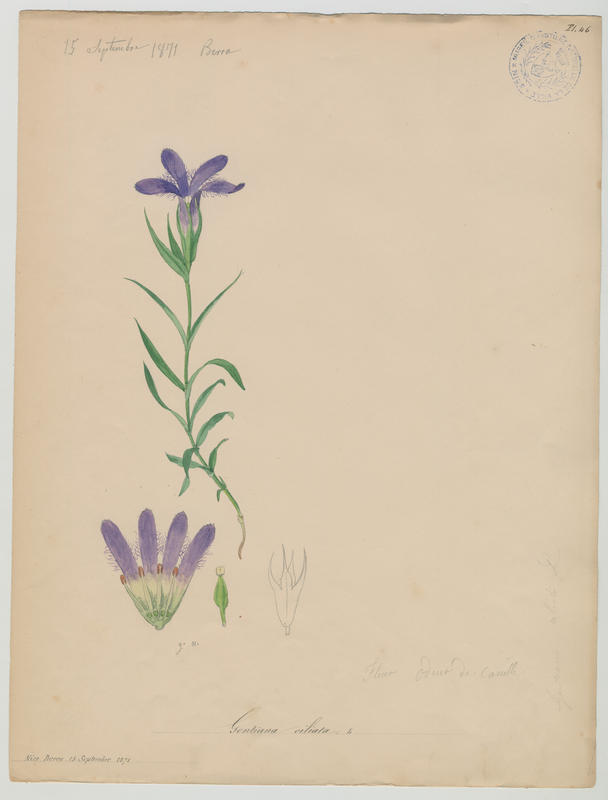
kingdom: Plantae
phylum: Tracheophyta
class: Magnoliopsida
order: Gentianales
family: Gentianaceae
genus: Gentianopsis
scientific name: Gentianopsis ciliata
